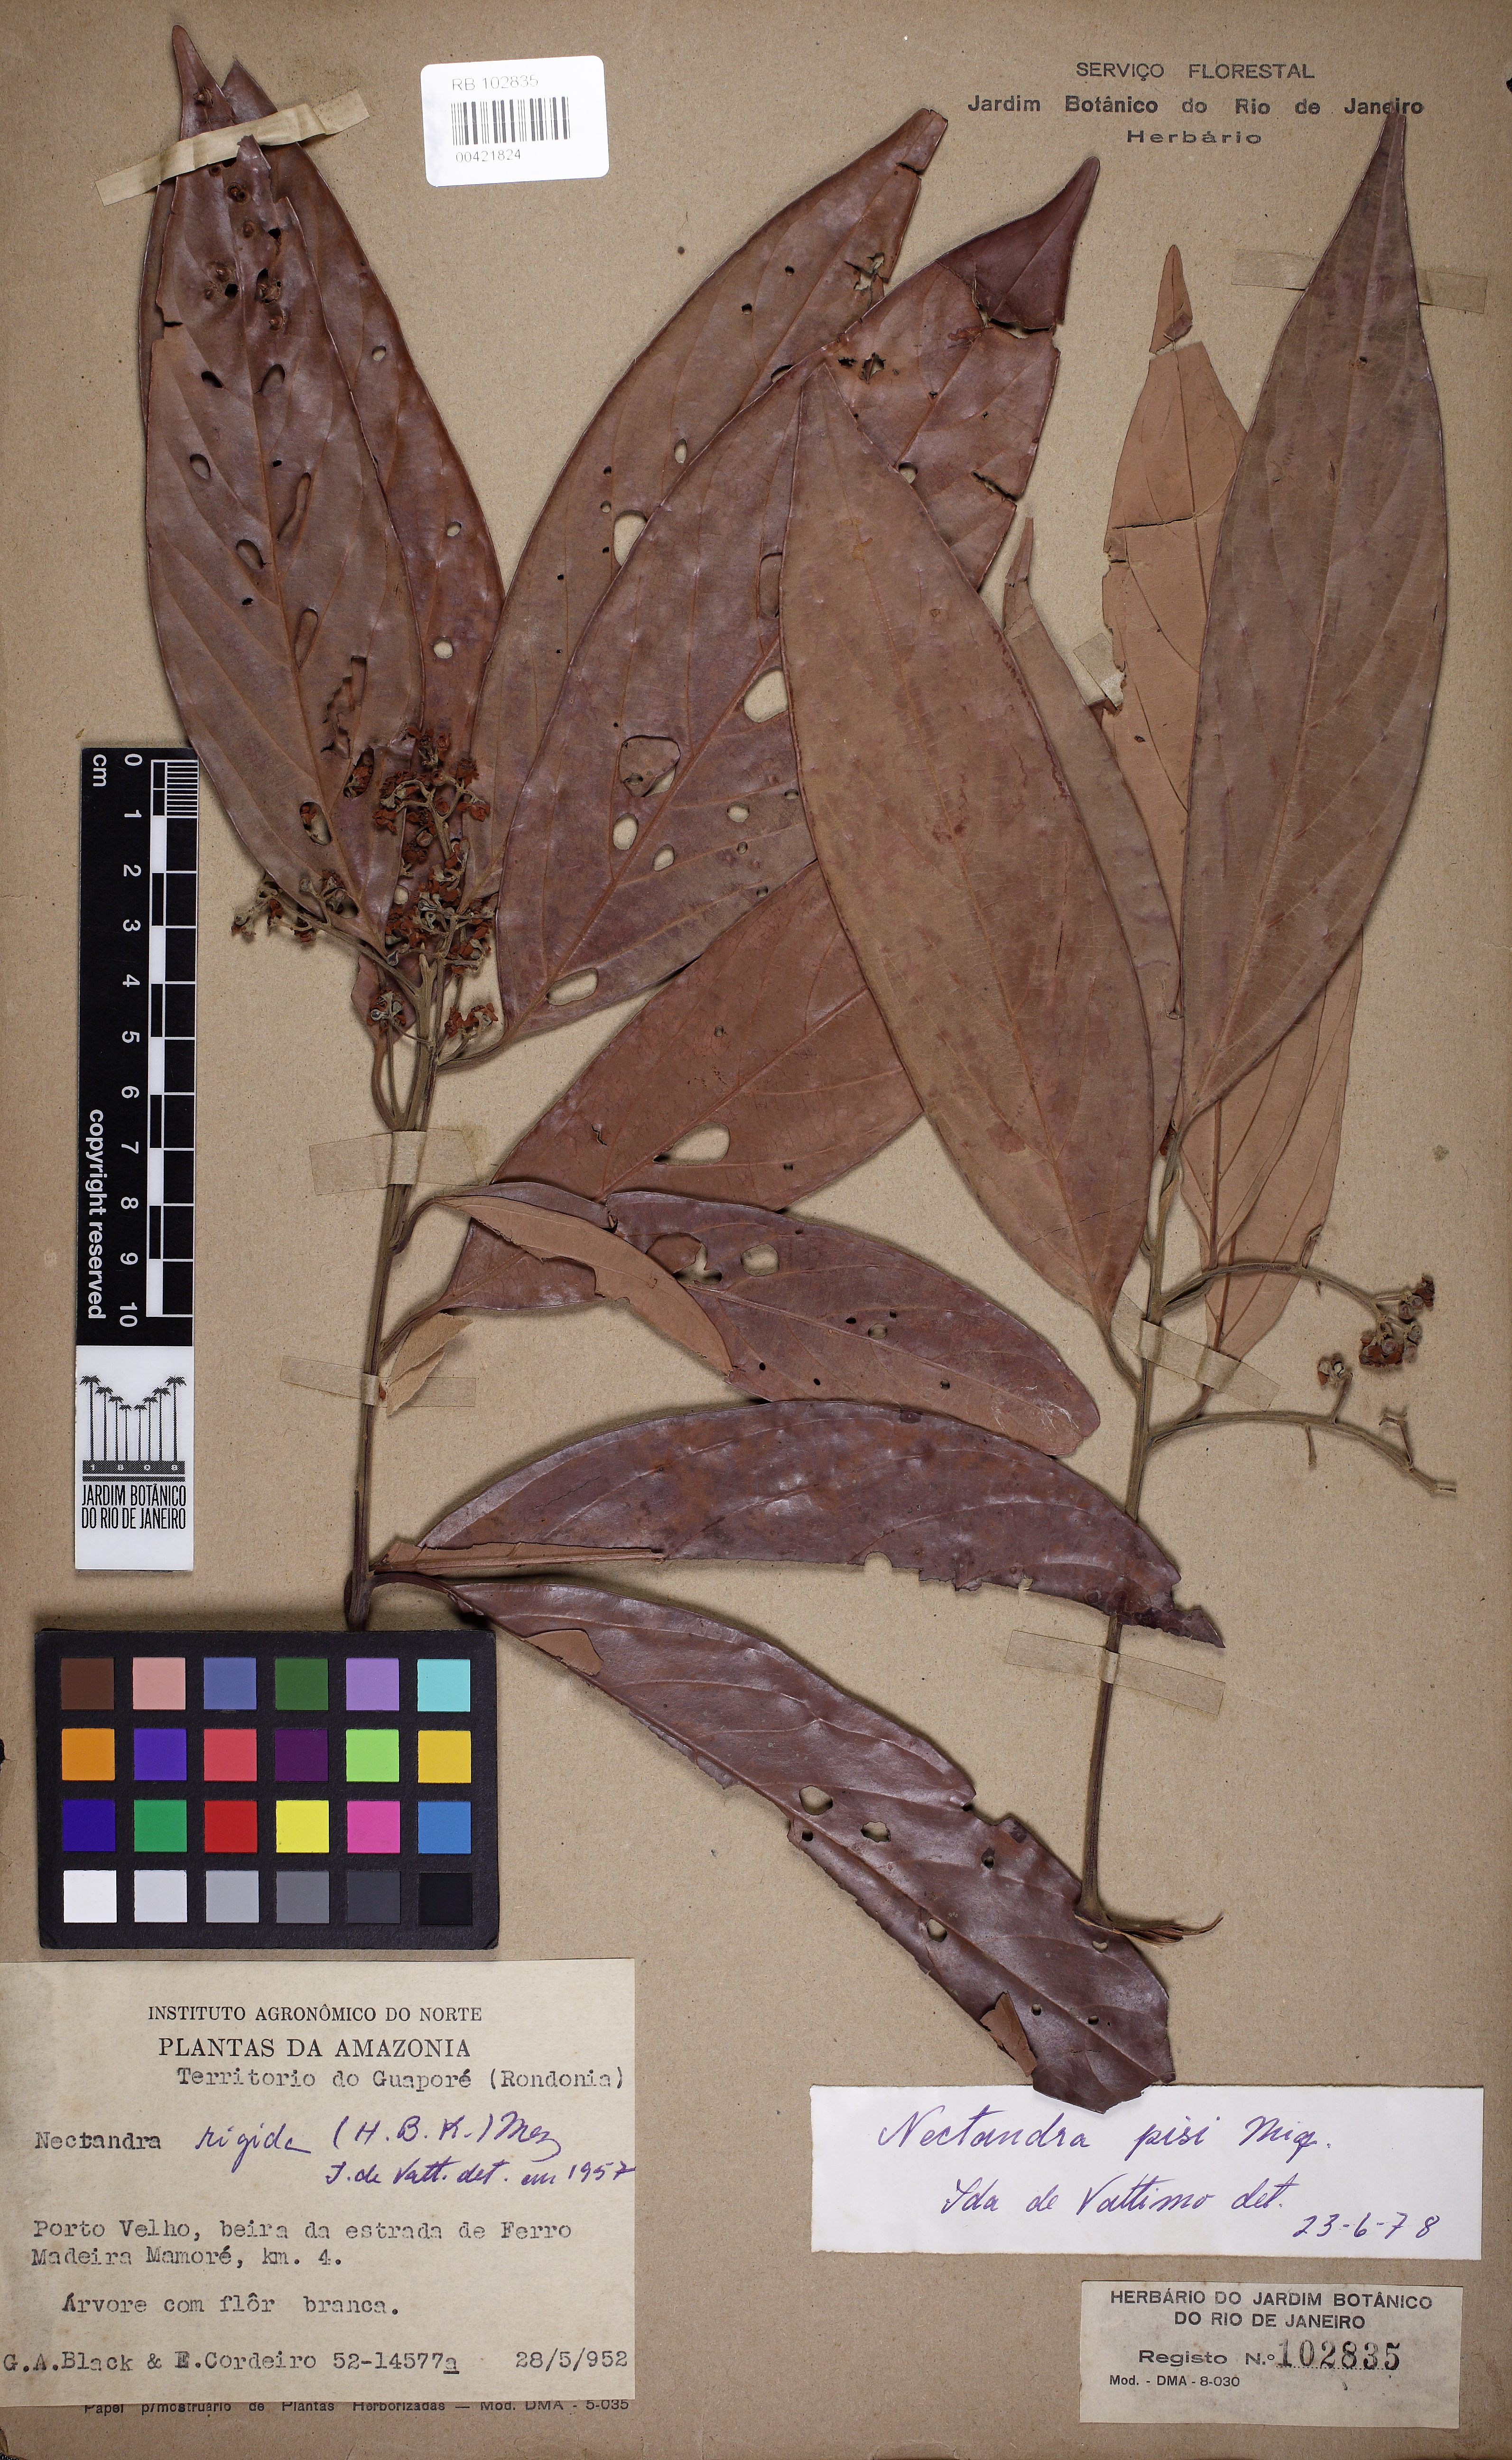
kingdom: Plantae
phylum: Tracheophyta
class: Magnoliopsida
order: Laurales
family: Lauraceae
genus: Nectandra
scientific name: Nectandra globosa
